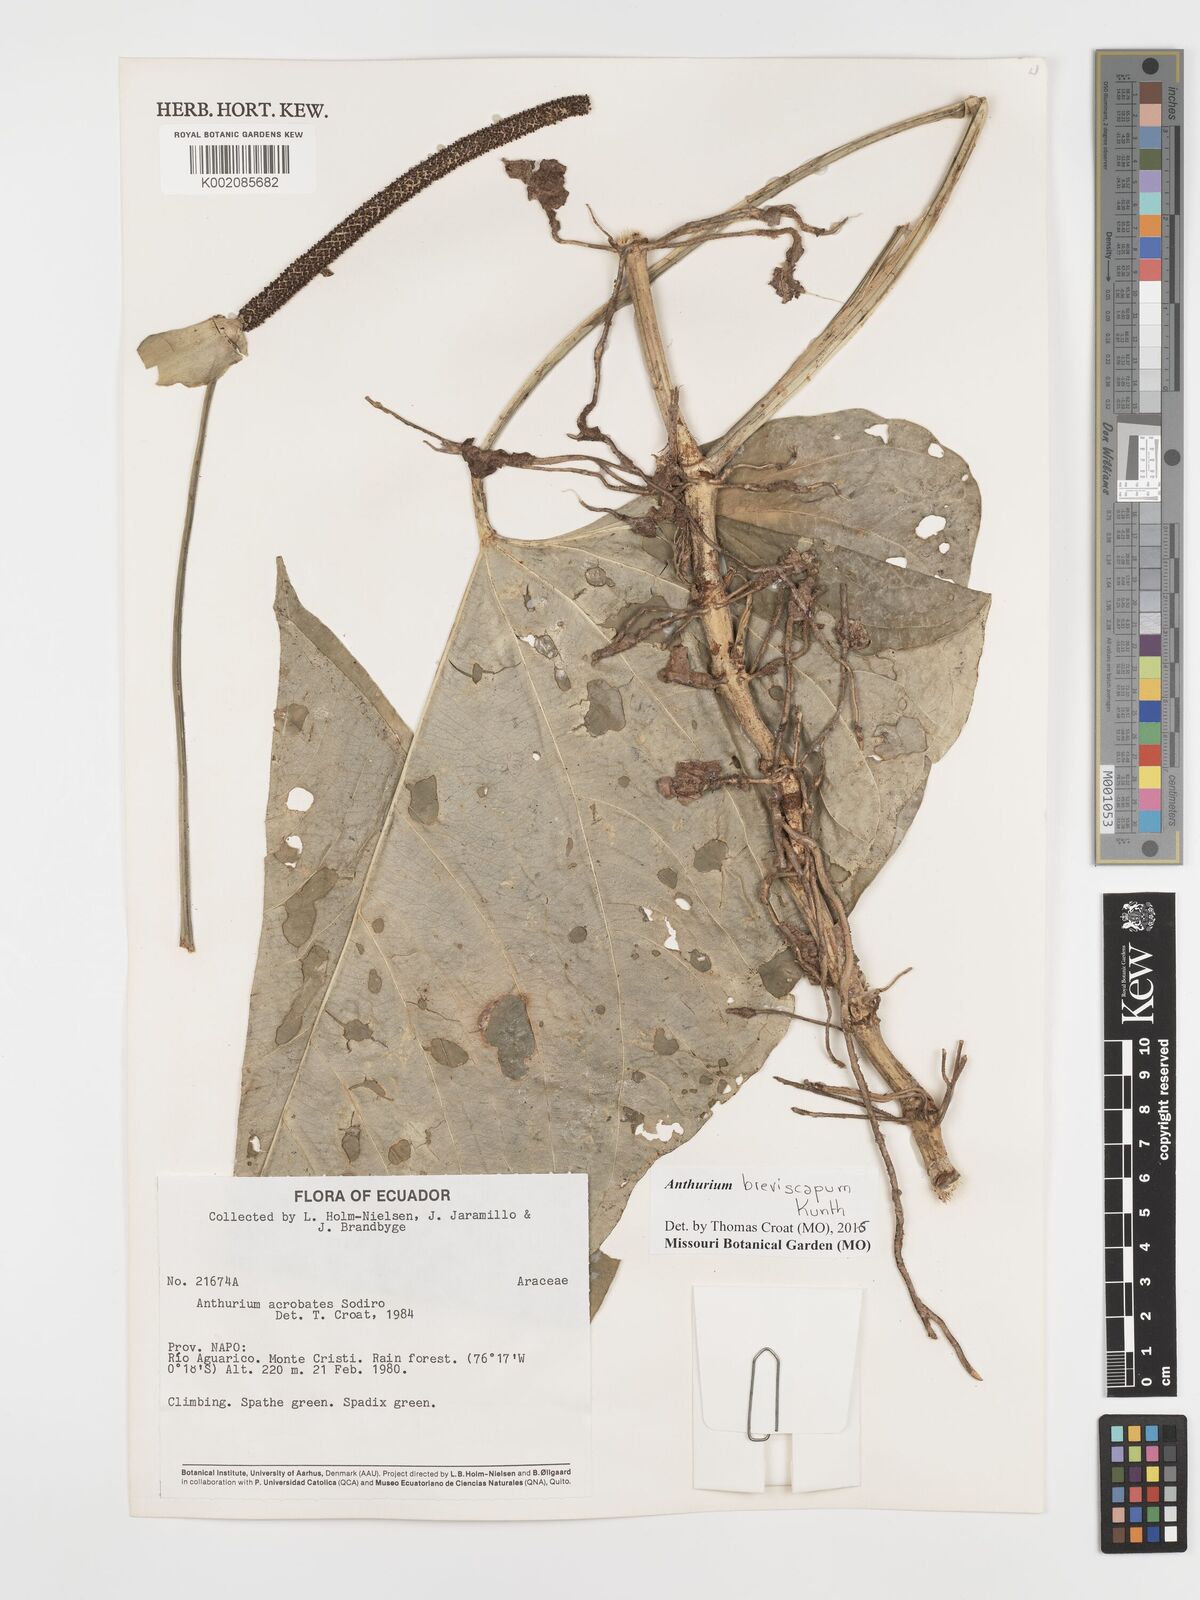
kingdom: Plantae
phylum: Tracheophyta
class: Liliopsida
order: Alismatales
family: Araceae
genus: Anthurium
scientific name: Anthurium breviscapum
